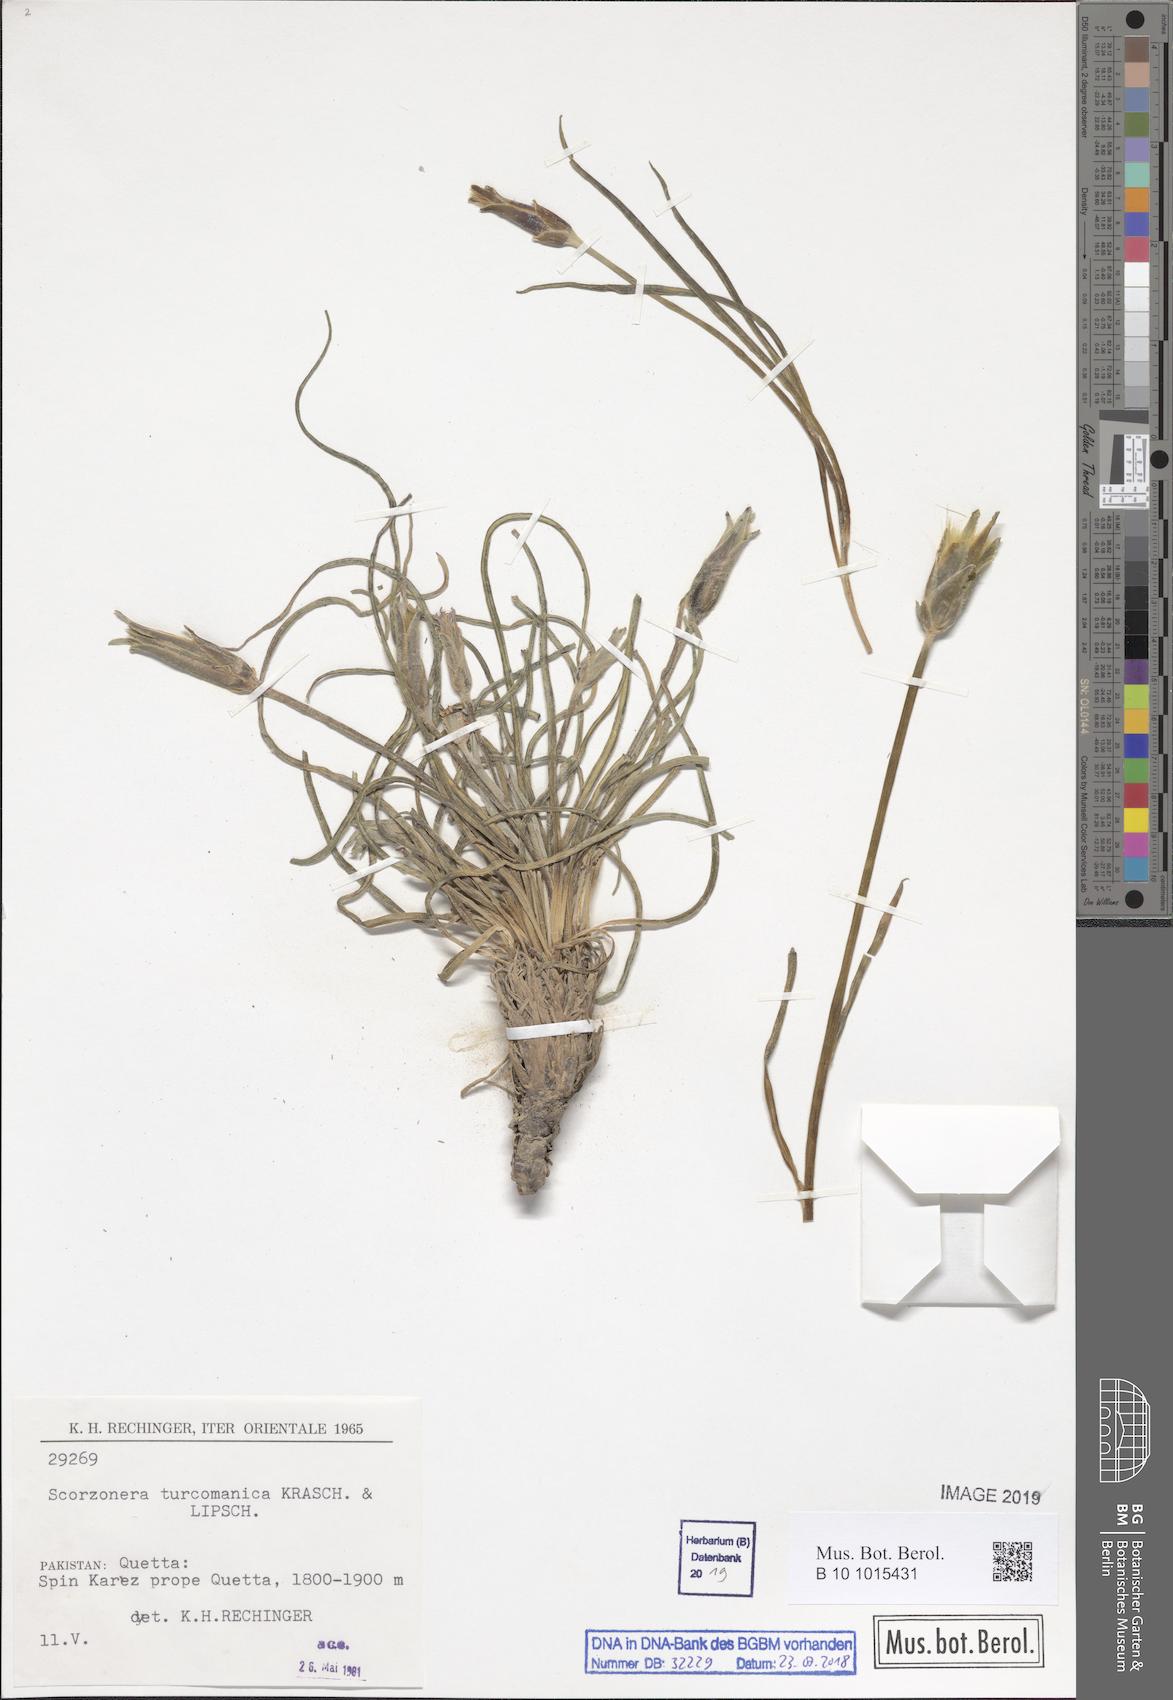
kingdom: Plantae
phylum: Tracheophyta
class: Magnoliopsida
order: Asterales
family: Asteraceae
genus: Candollea
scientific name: Candollea raddeana
